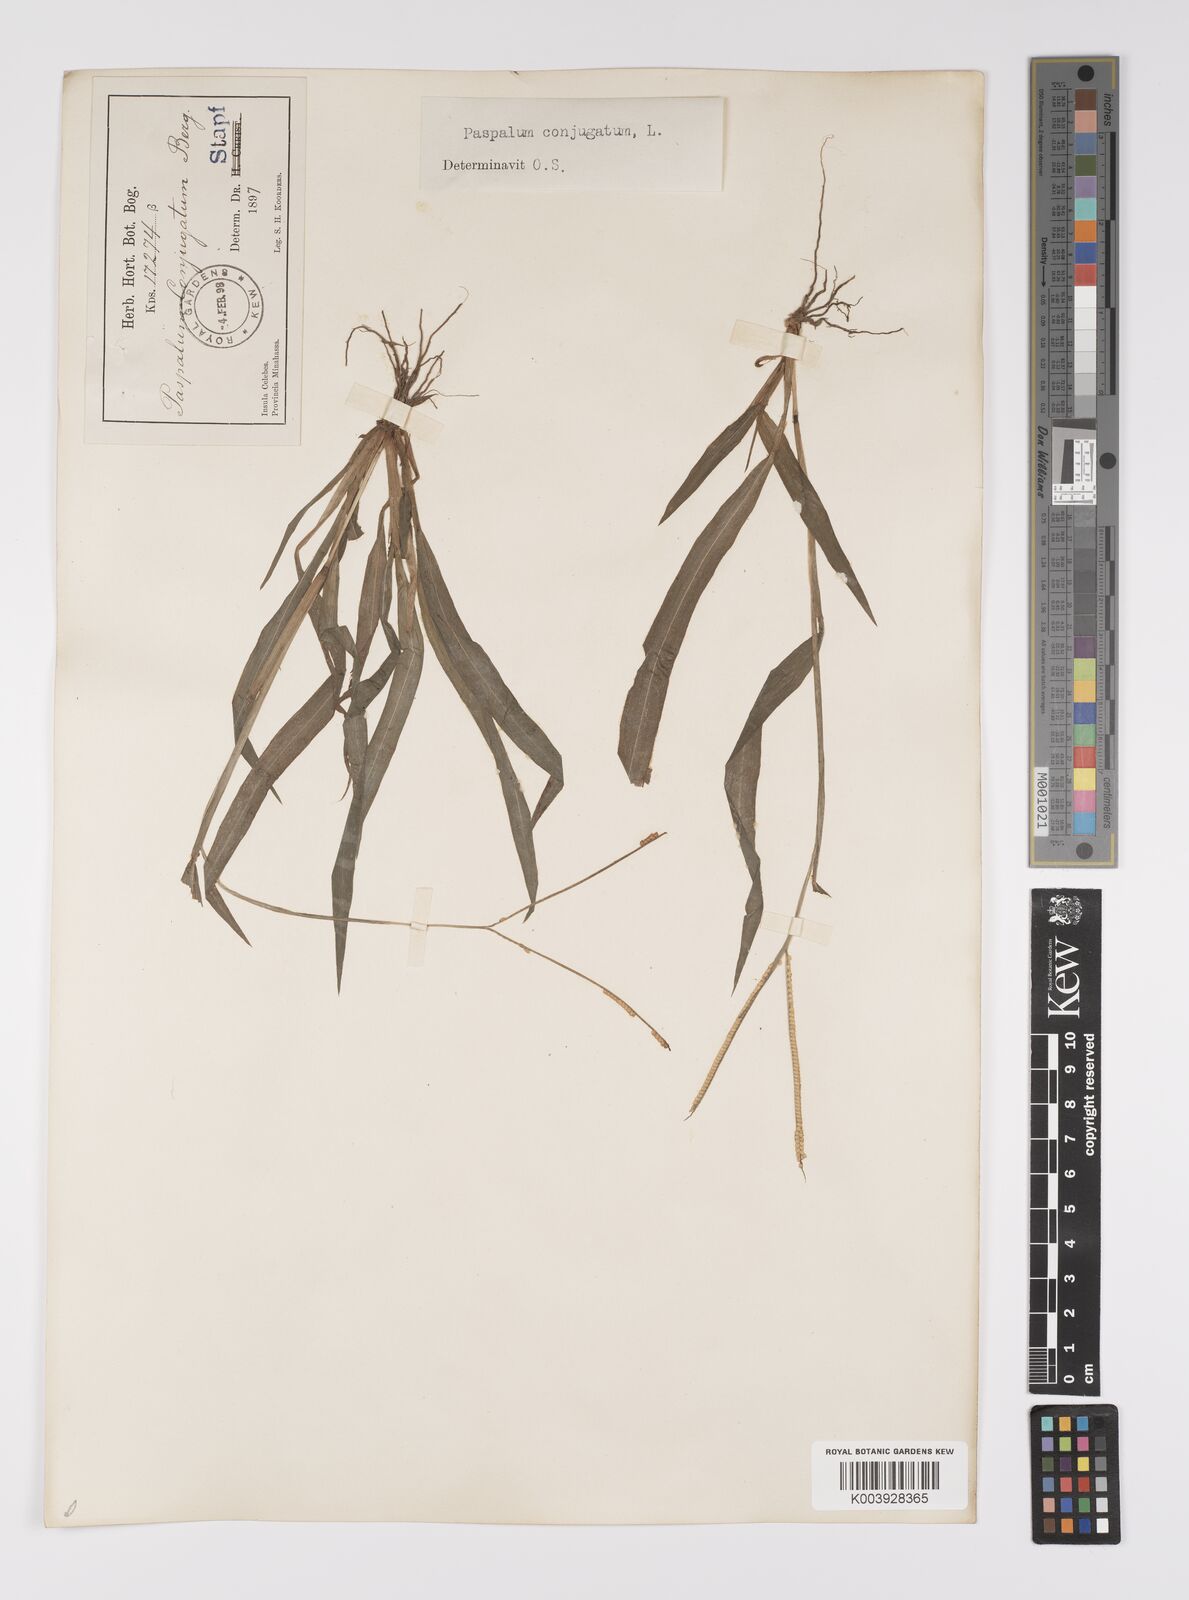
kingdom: Plantae
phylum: Tracheophyta
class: Liliopsida
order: Poales
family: Poaceae
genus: Paspalum
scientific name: Paspalum conjugatum
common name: Hilograss
